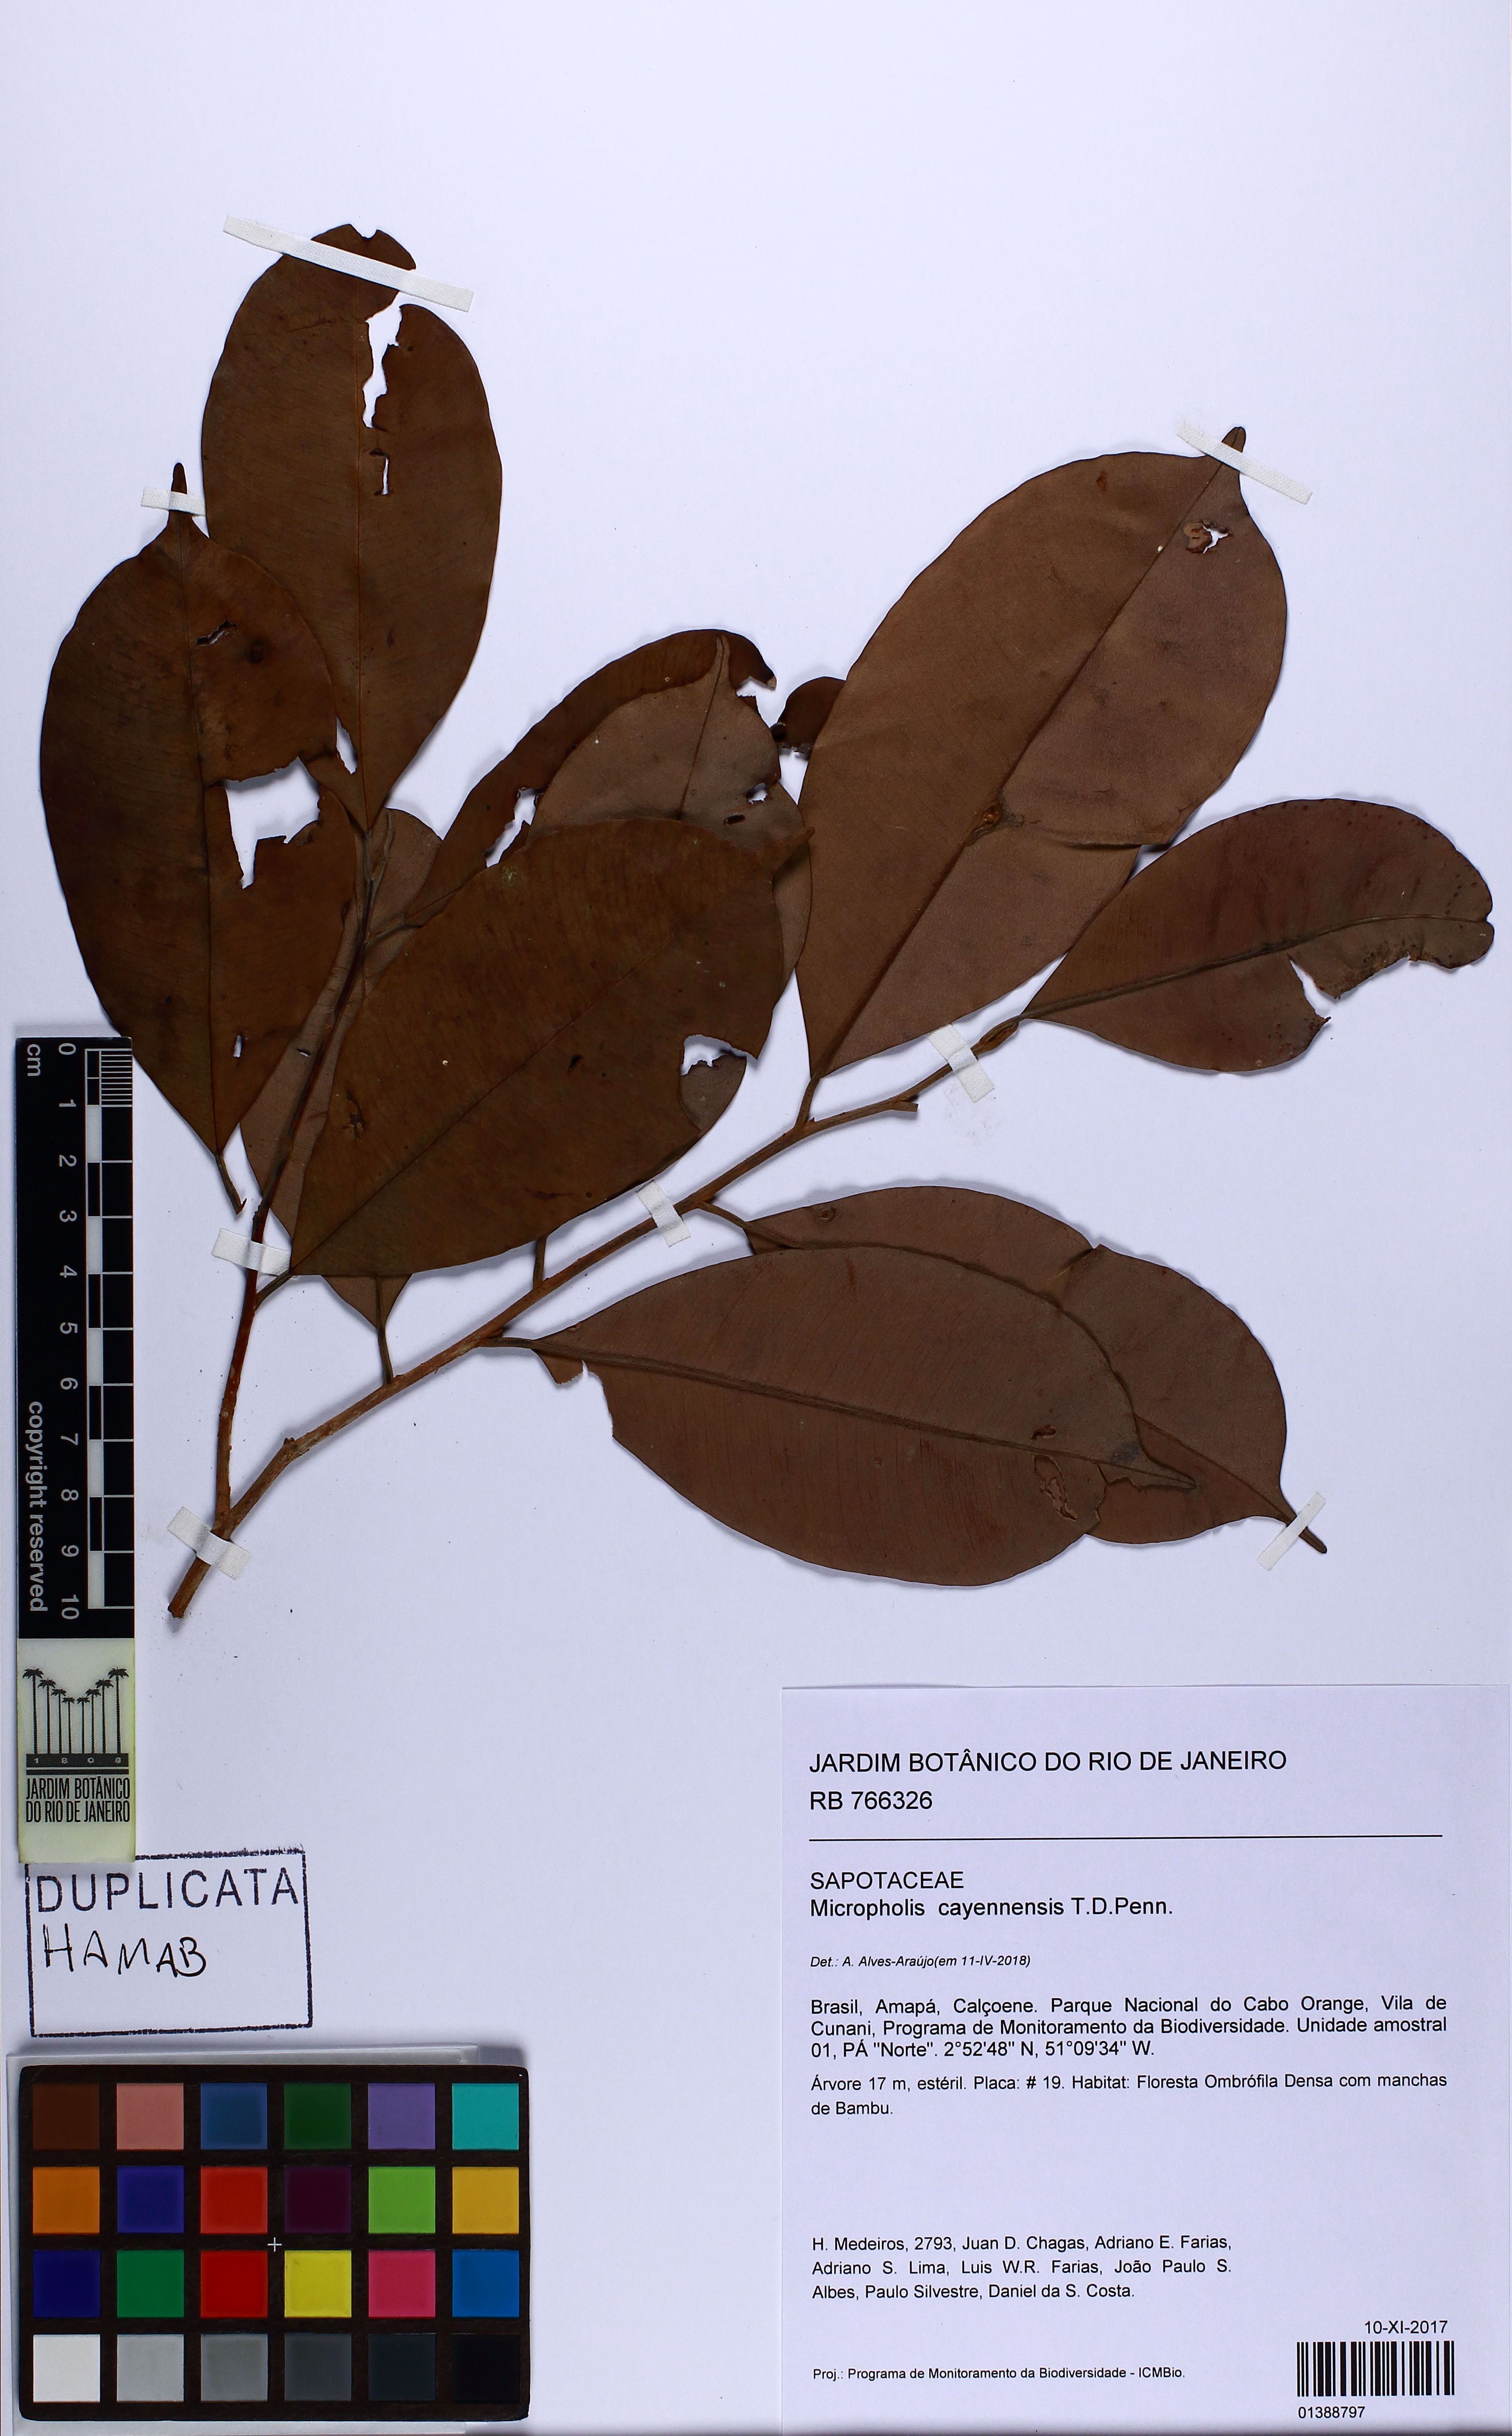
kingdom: Plantae
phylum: Tracheophyta
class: Magnoliopsida
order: Ericales
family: Sapotaceae
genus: Micropholis
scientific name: Micropholis cayennensis
